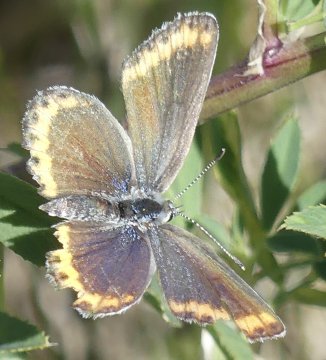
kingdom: Animalia
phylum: Arthropoda
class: Insecta
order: Lepidoptera
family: Lycaenidae
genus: Lycaeides
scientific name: Lycaeides melissa
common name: Melissa Blue
